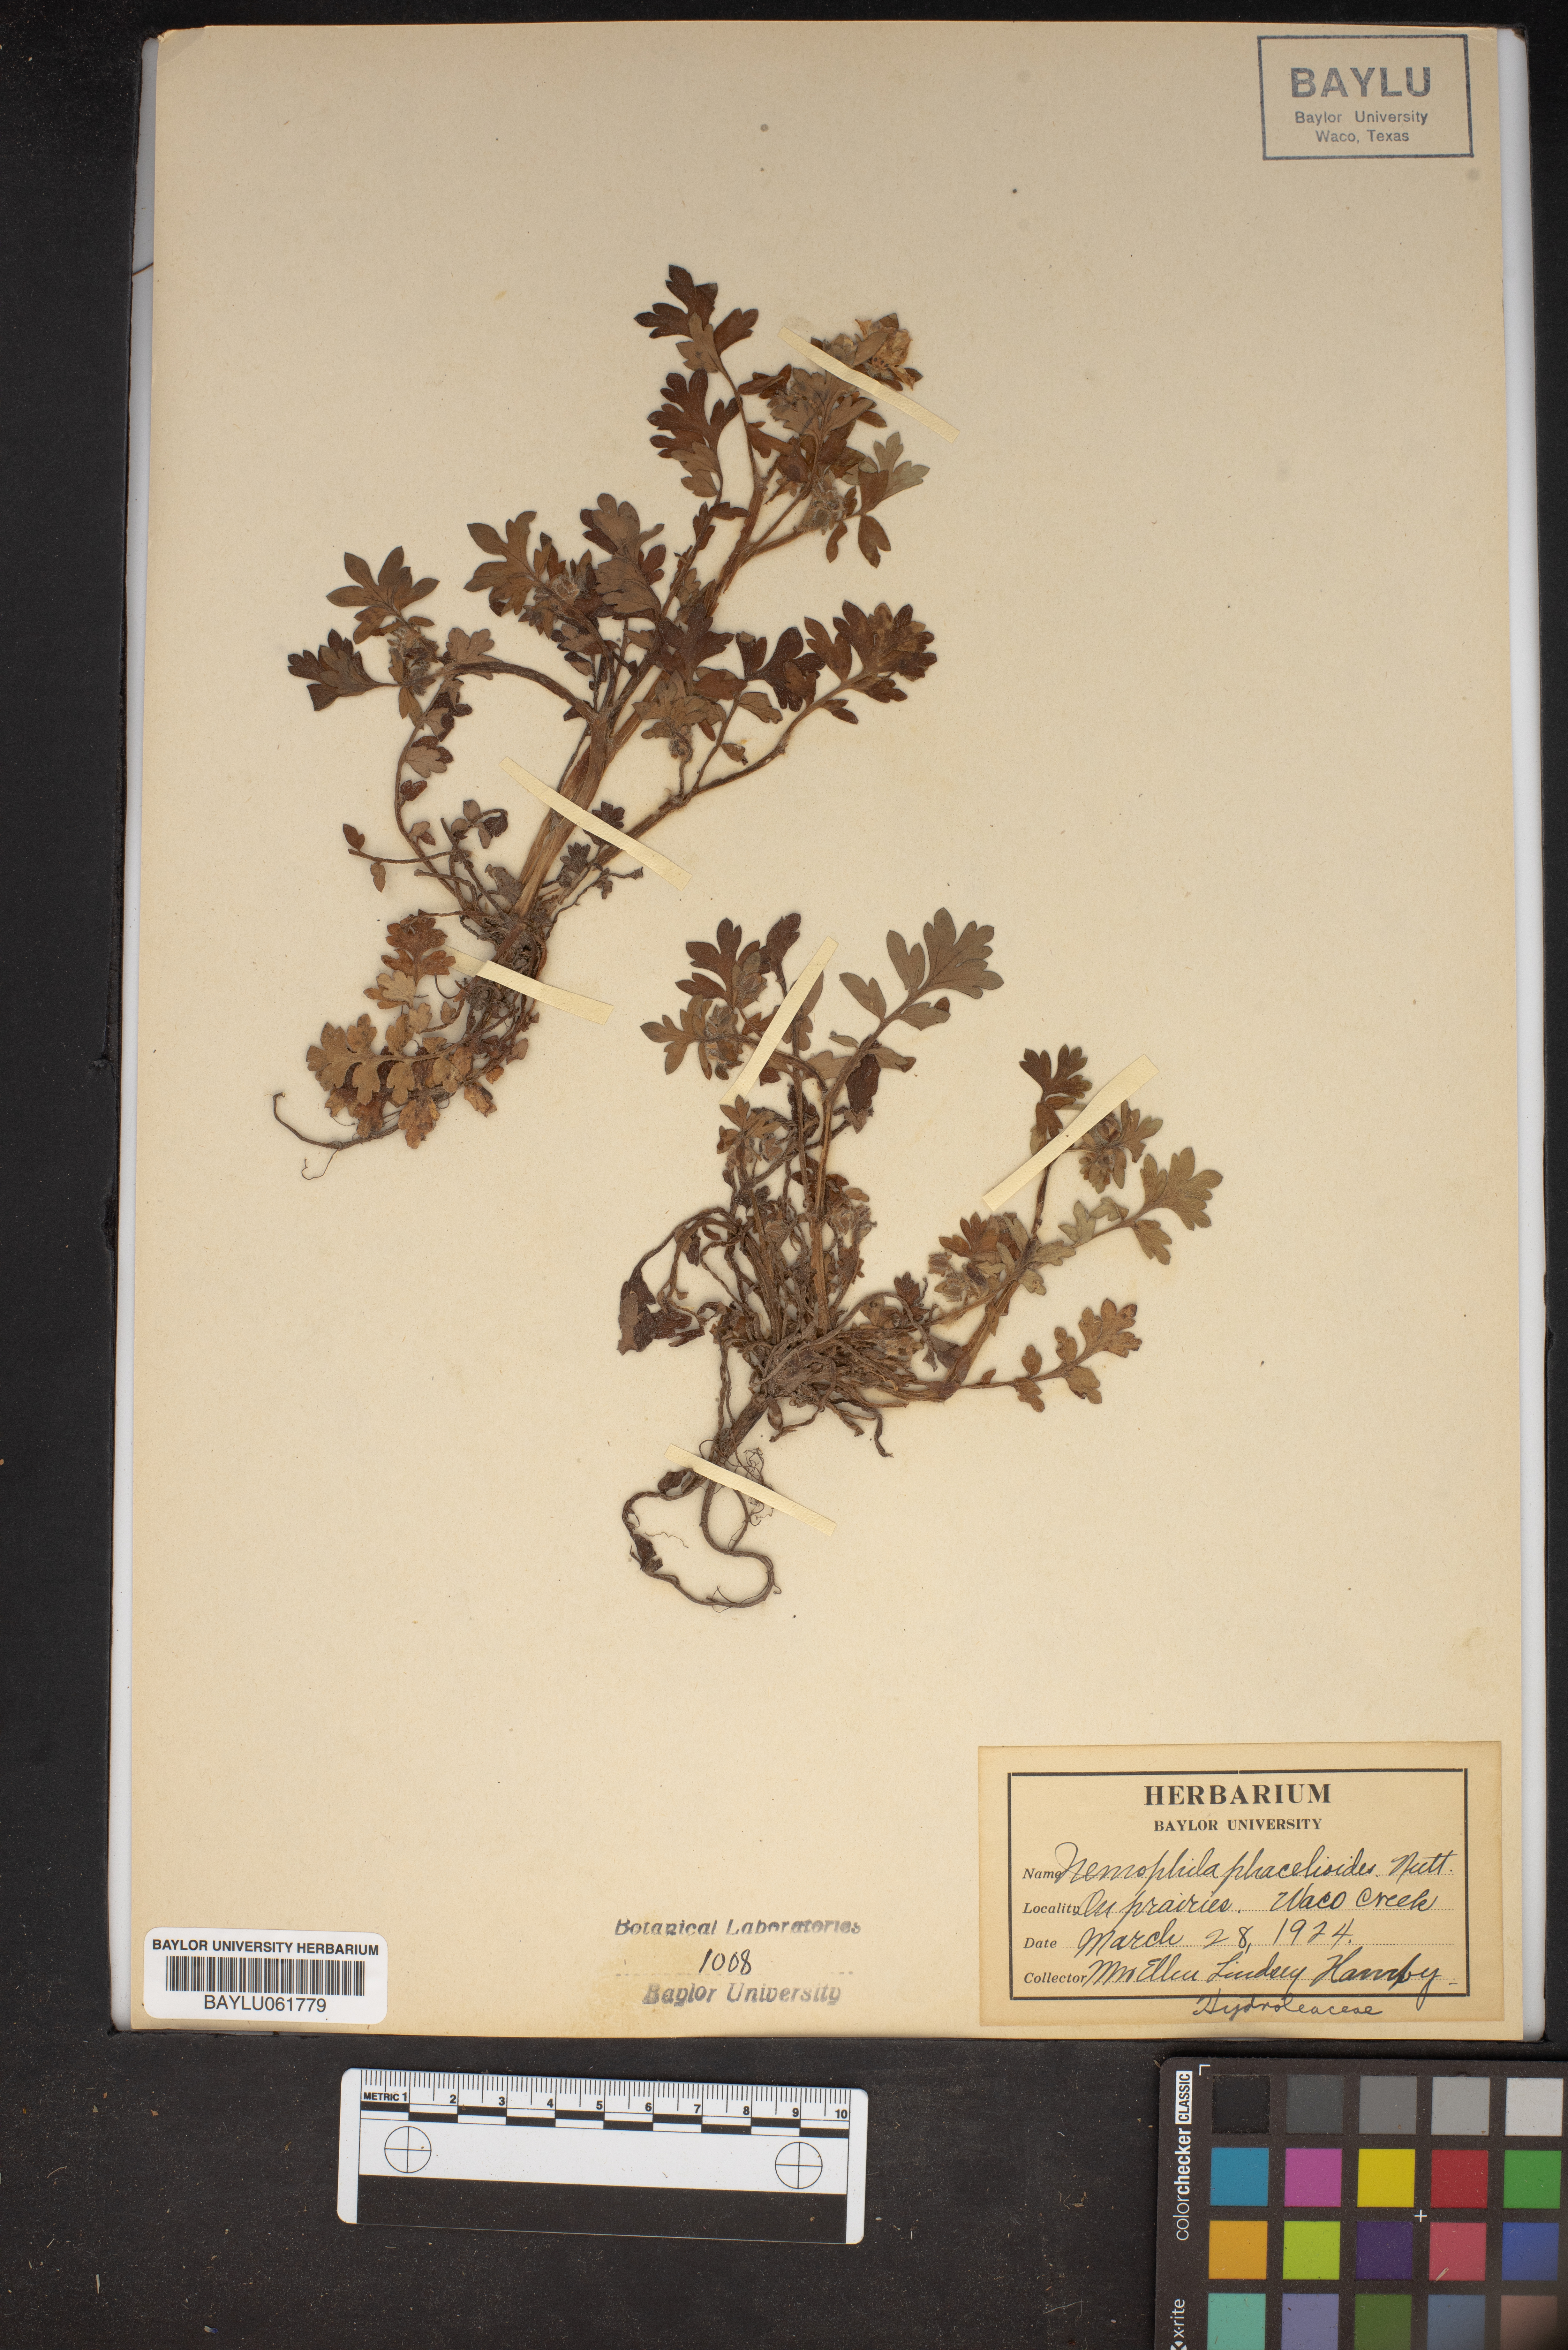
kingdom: Plantae
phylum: Tracheophyta
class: Magnoliopsida
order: Boraginales
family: Hydrophyllaceae
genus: Nemophila
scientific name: Nemophila phacelioides
